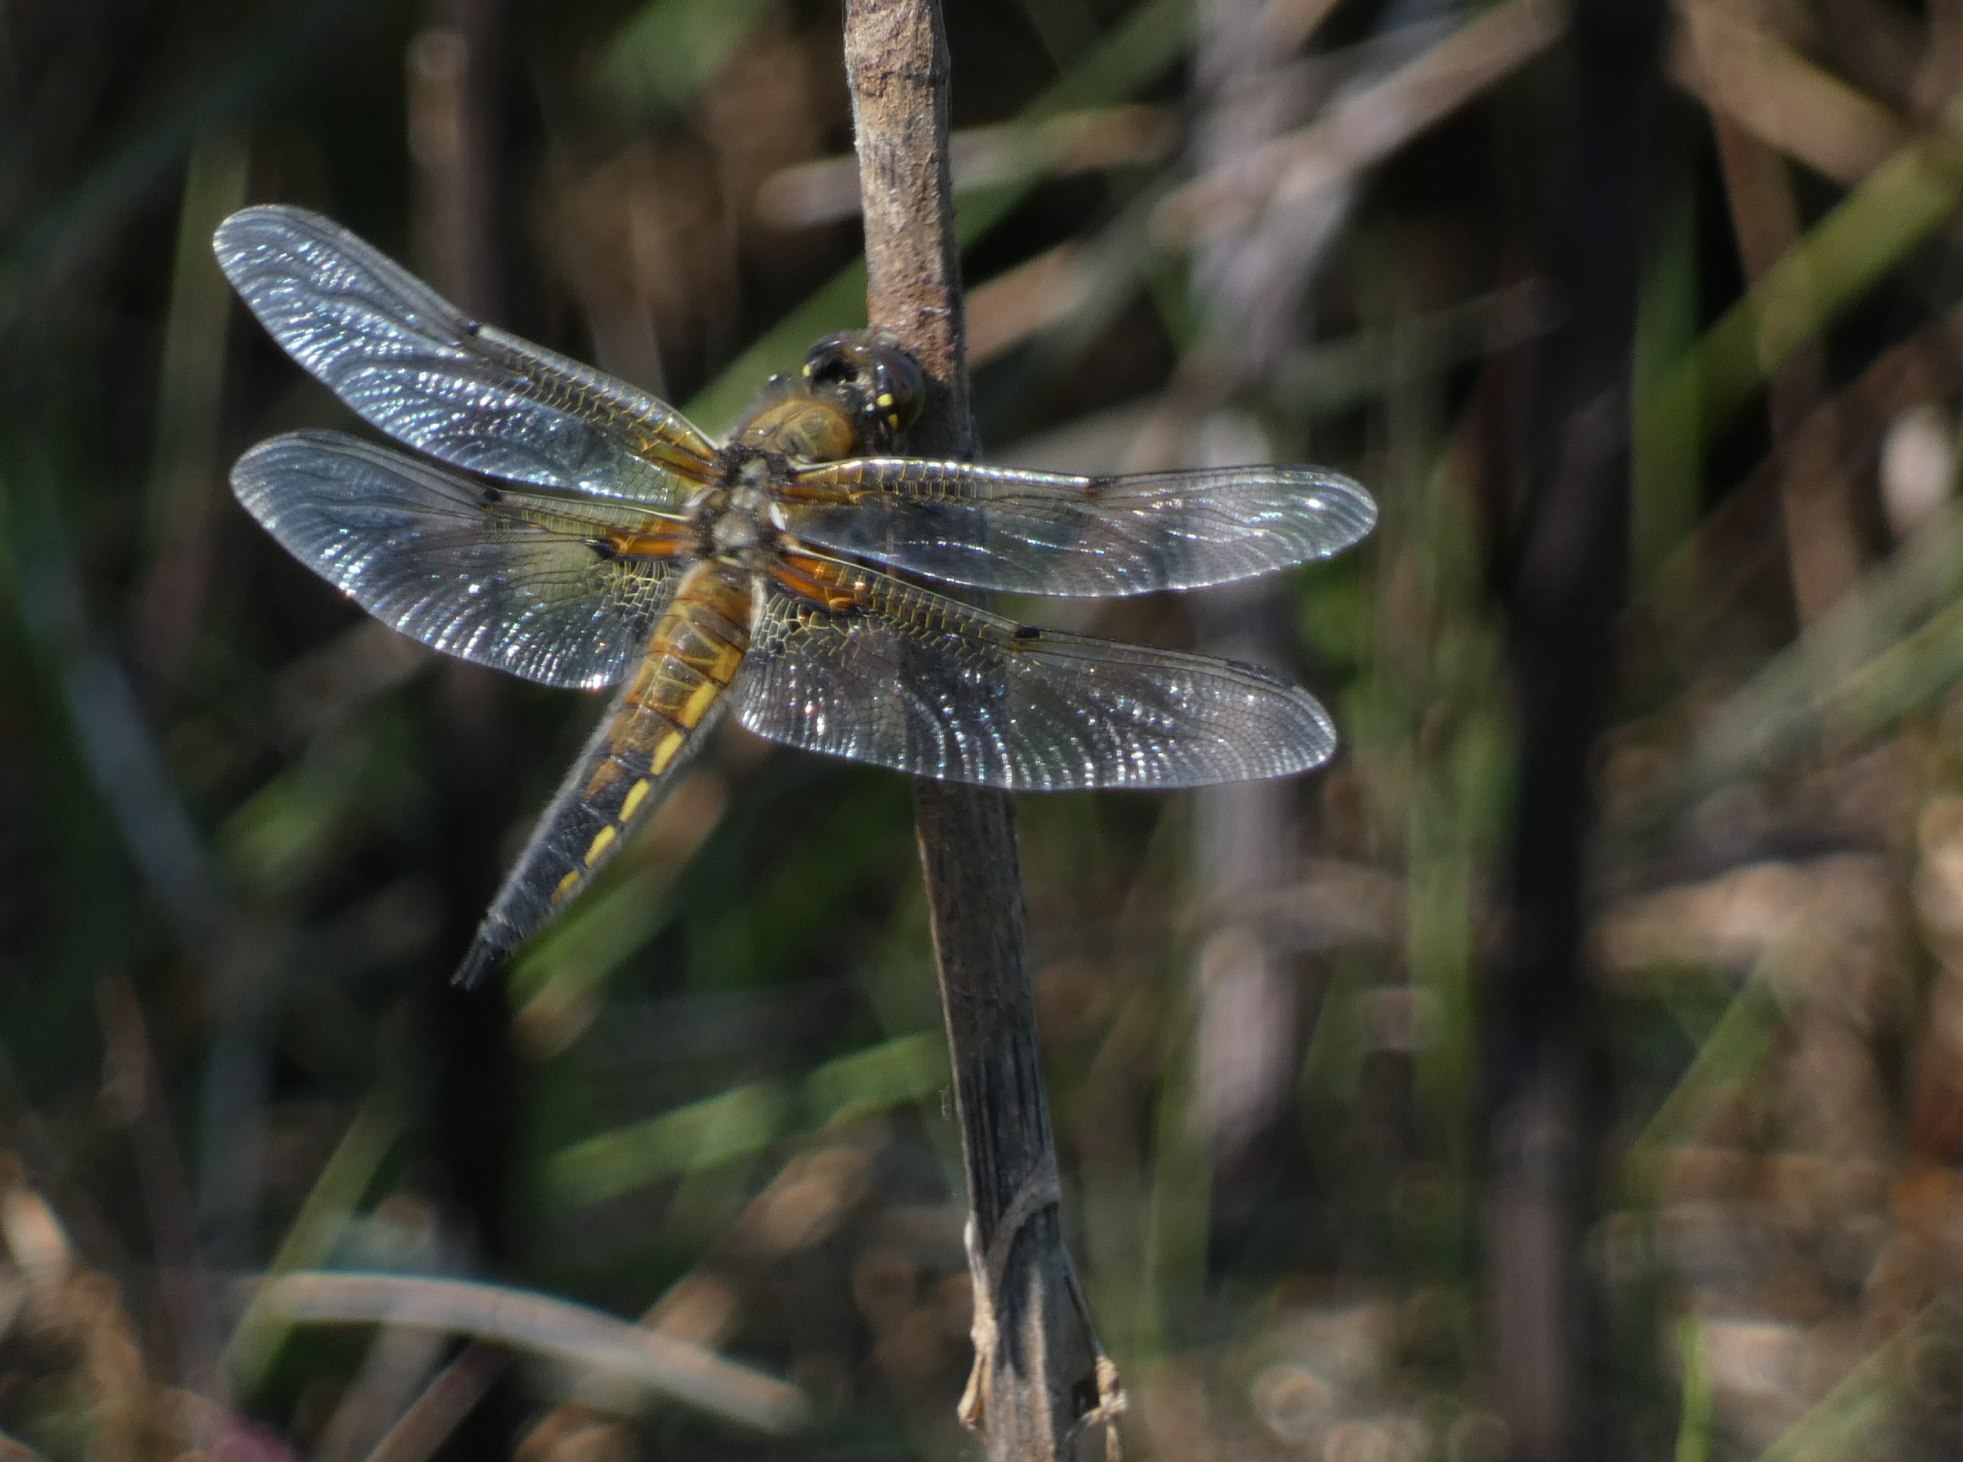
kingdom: Animalia
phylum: Arthropoda
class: Insecta
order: Odonata
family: Libellulidae
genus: Libellula
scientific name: Libellula quadrimaculata
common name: Fireplettet libel
